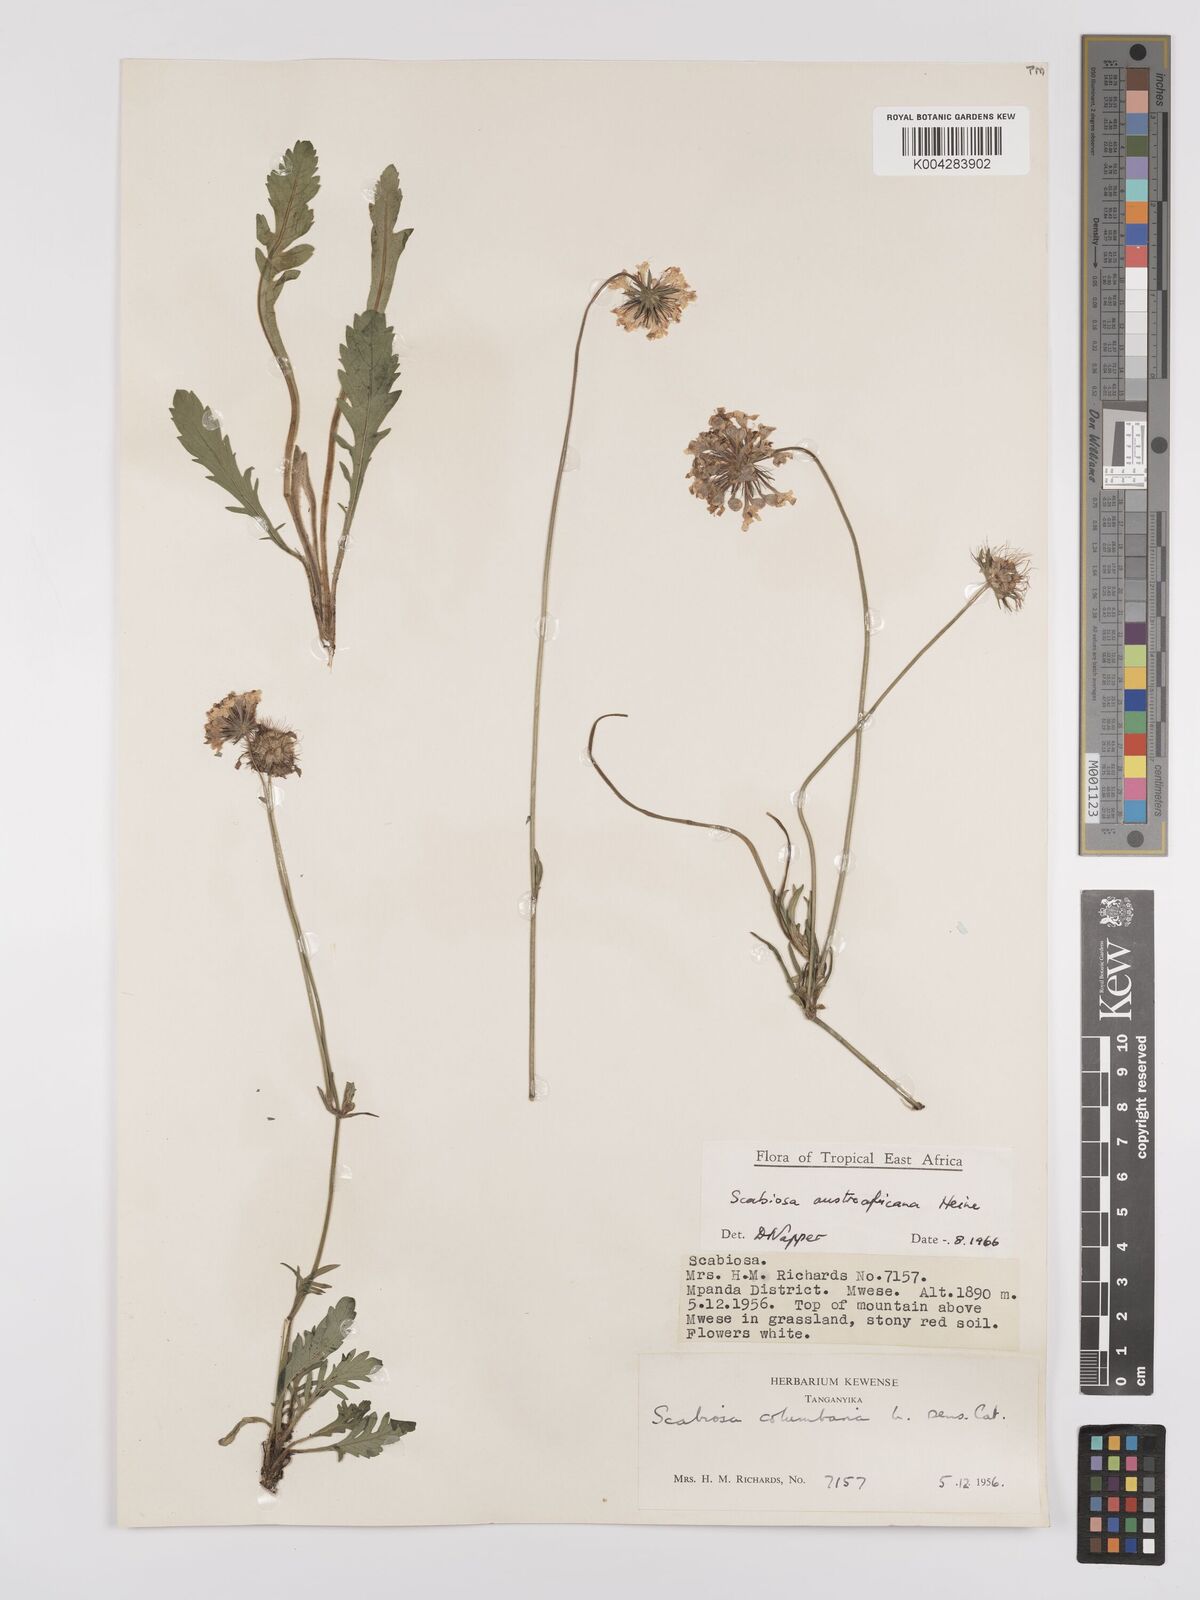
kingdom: Plantae
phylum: Tracheophyta
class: Magnoliopsida
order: Dipsacales
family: Caprifoliaceae
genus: Scabiosa
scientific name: Scabiosa austroafricana
